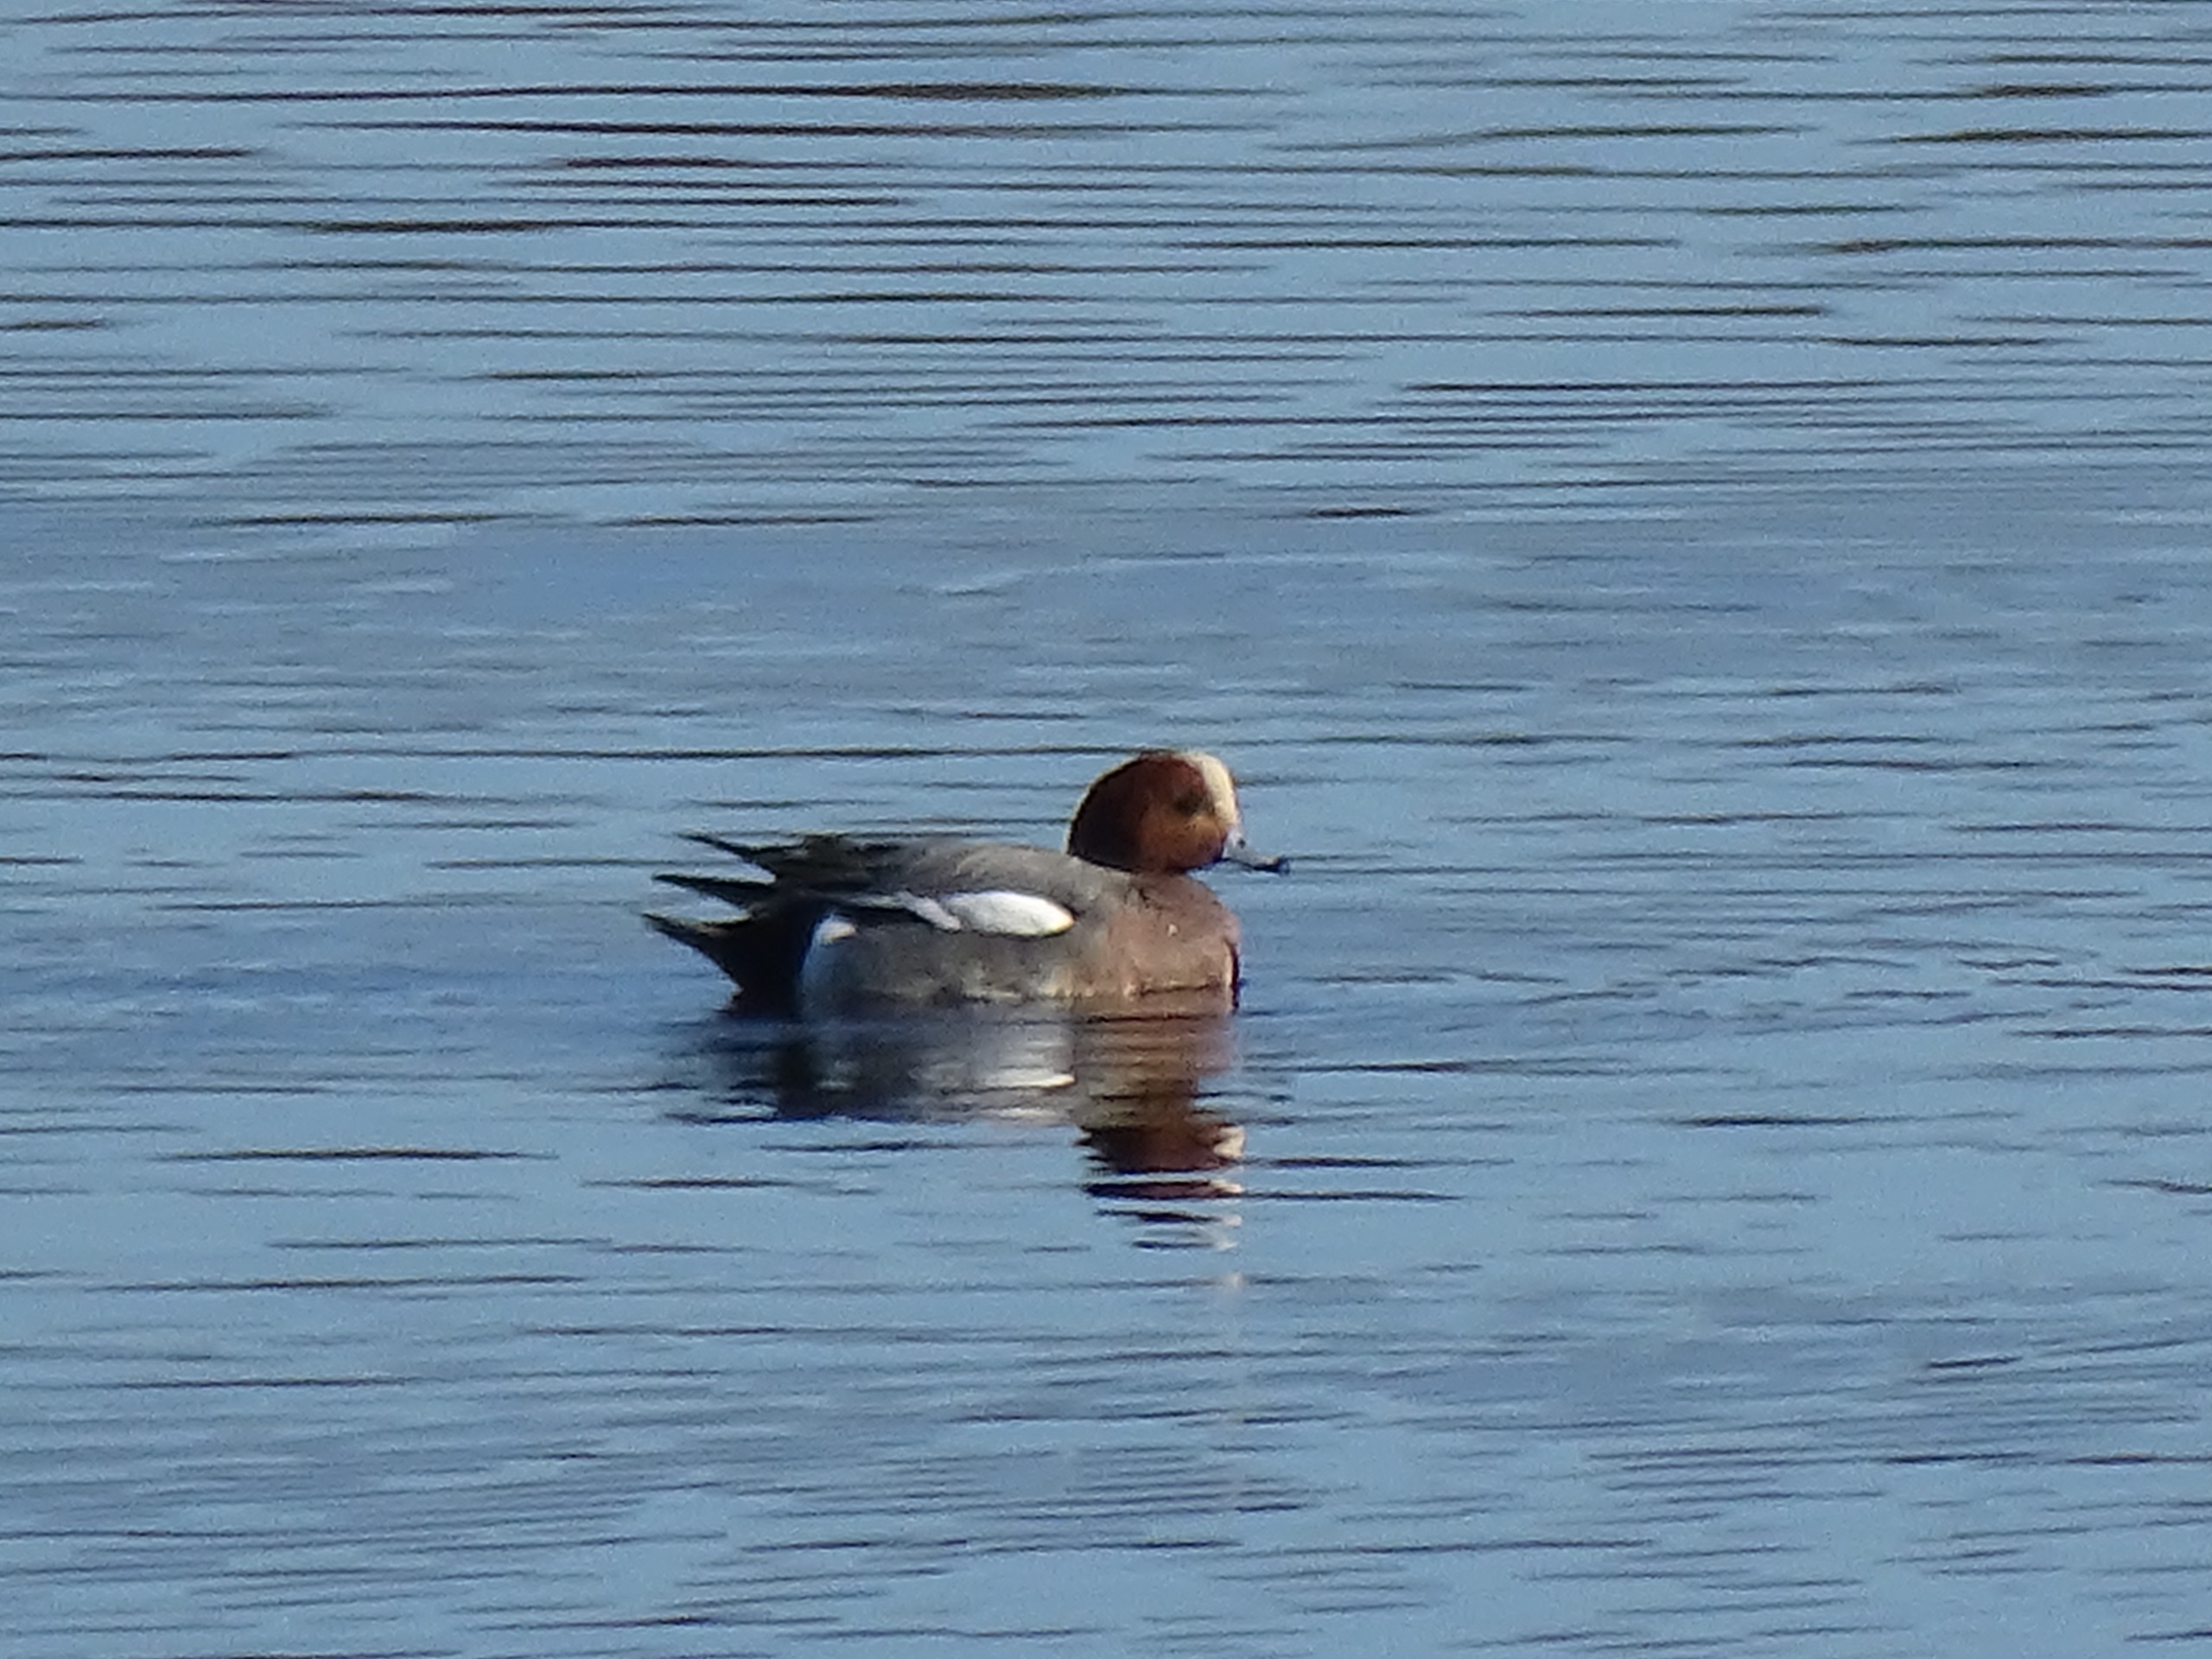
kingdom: Animalia
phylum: Chordata
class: Aves
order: Anseriformes
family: Anatidae
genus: Mareca
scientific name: Mareca penelope
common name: Pibeand
